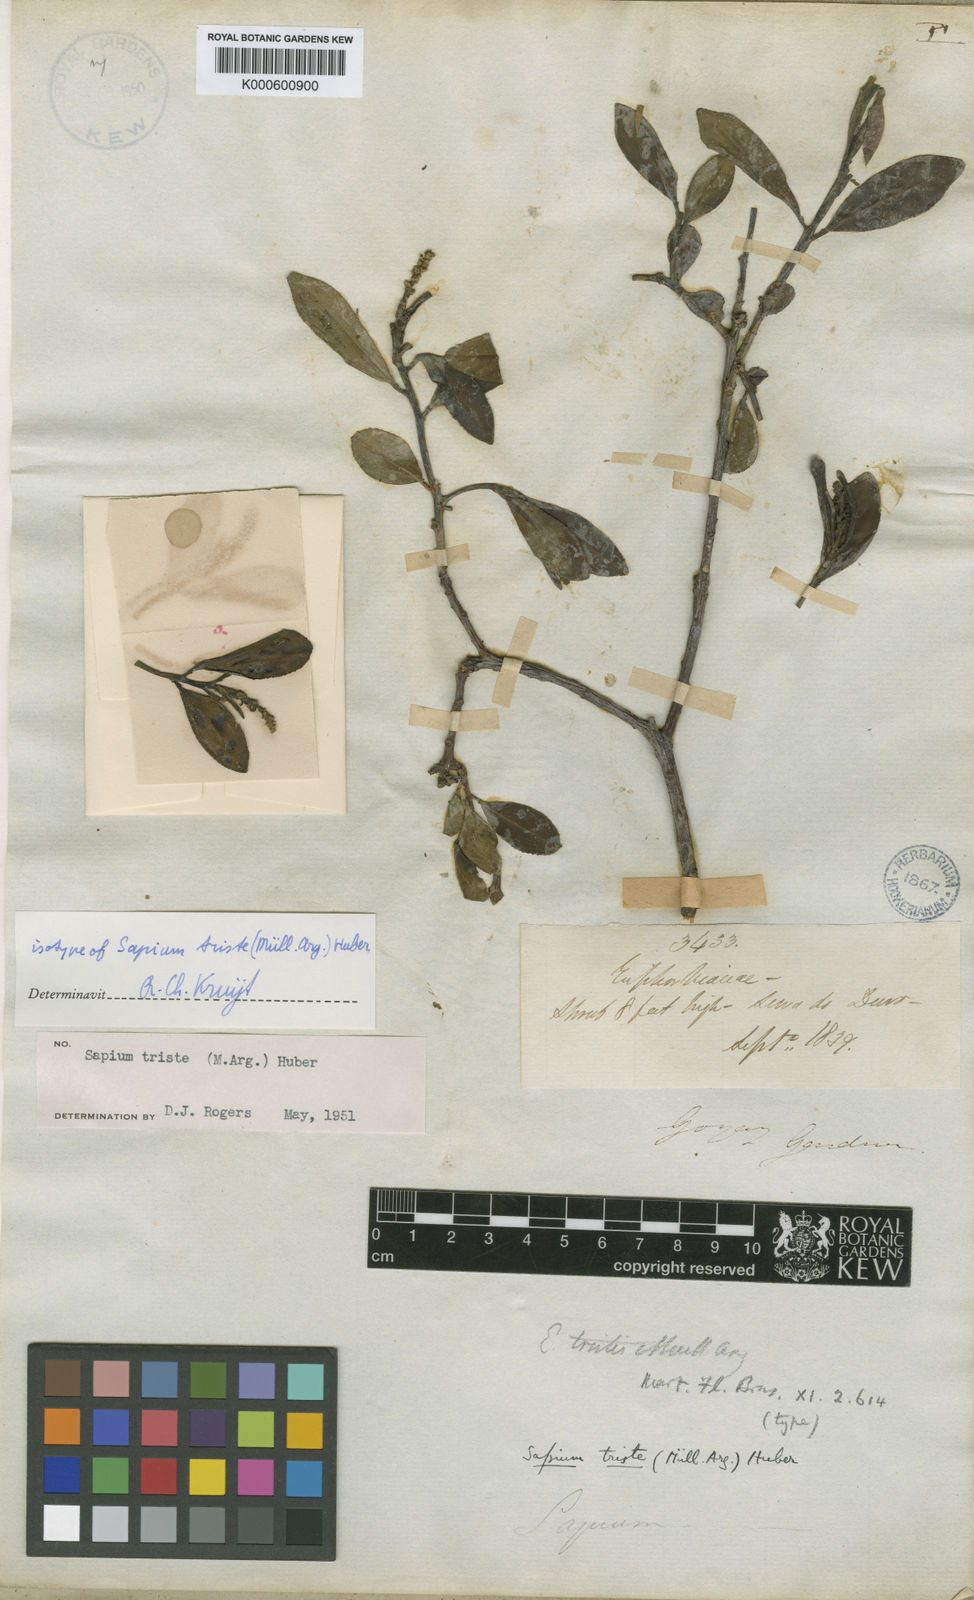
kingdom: Plantae
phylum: Tracheophyta
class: Magnoliopsida
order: Malpighiales
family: Euphorbiaceae
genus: Sapium
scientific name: Sapium
